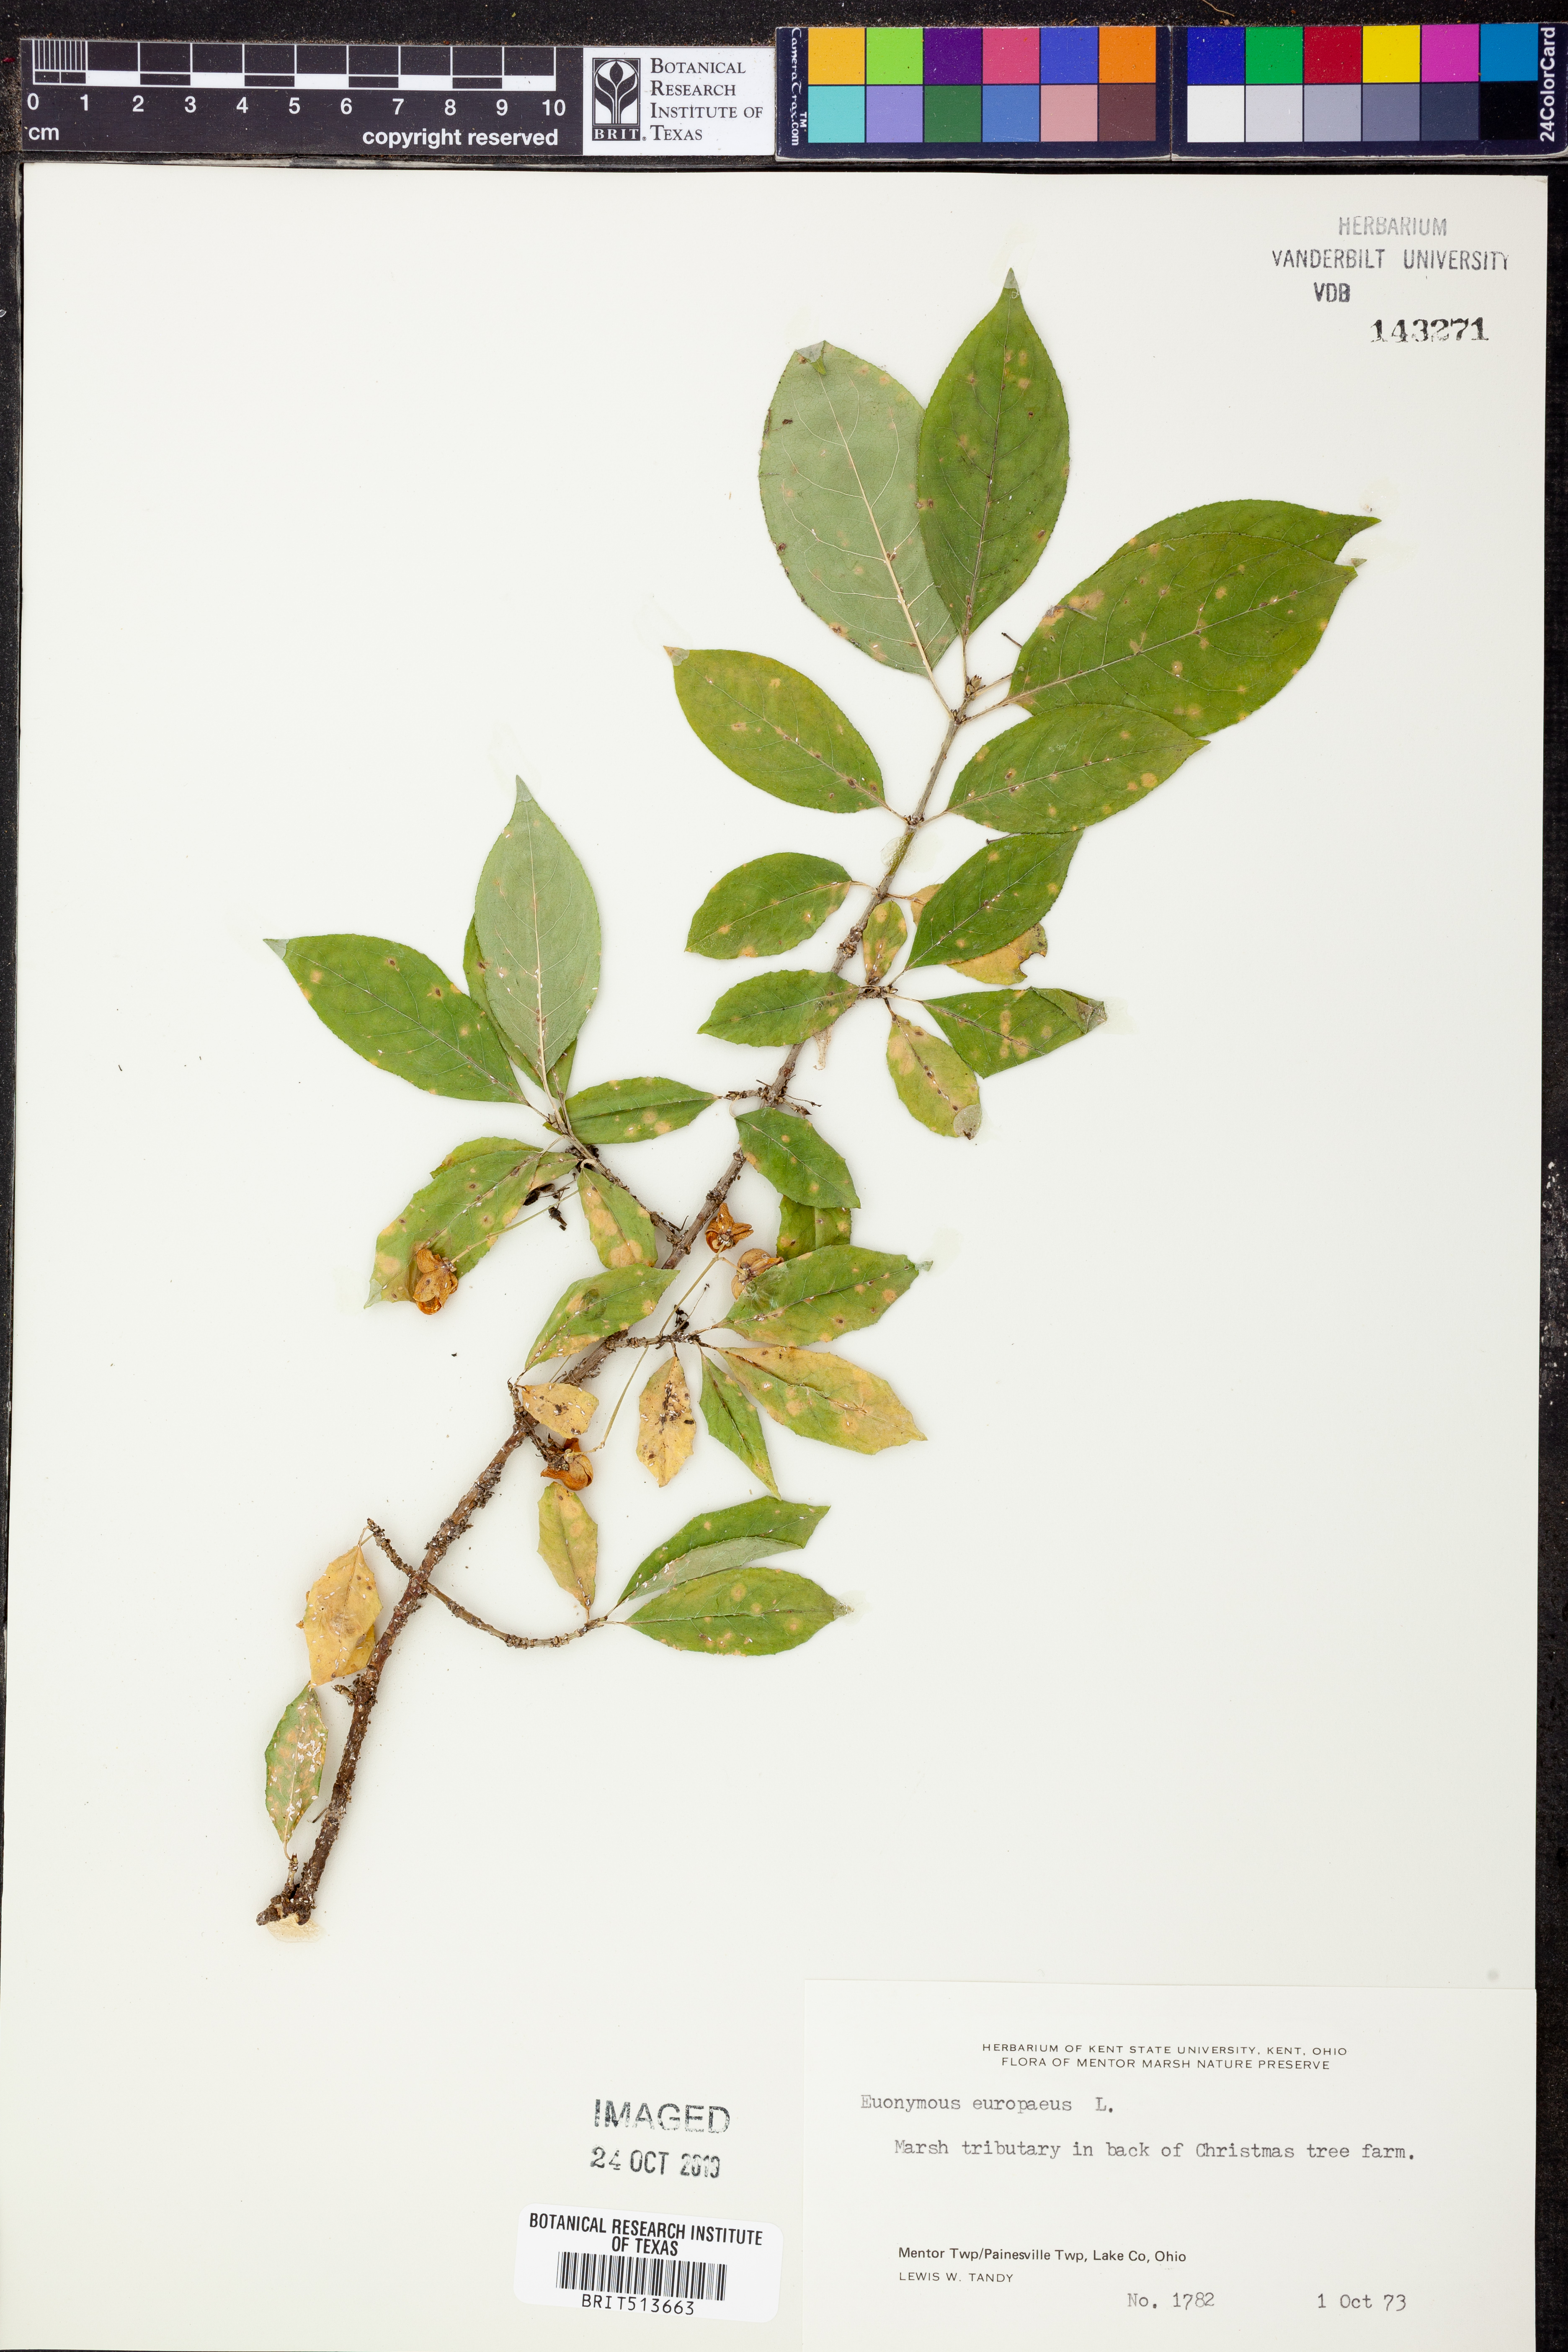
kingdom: Plantae
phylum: Tracheophyta
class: Magnoliopsida
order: Celastrales
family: Celastraceae
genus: Euonymus
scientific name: Euonymus europaeus
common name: Spindle
